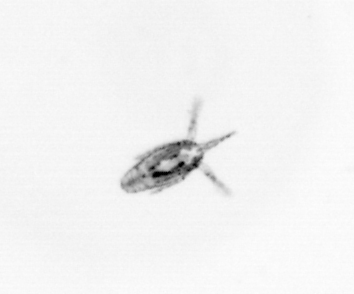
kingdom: Animalia
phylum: Arthropoda
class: Copepoda
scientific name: Copepoda
